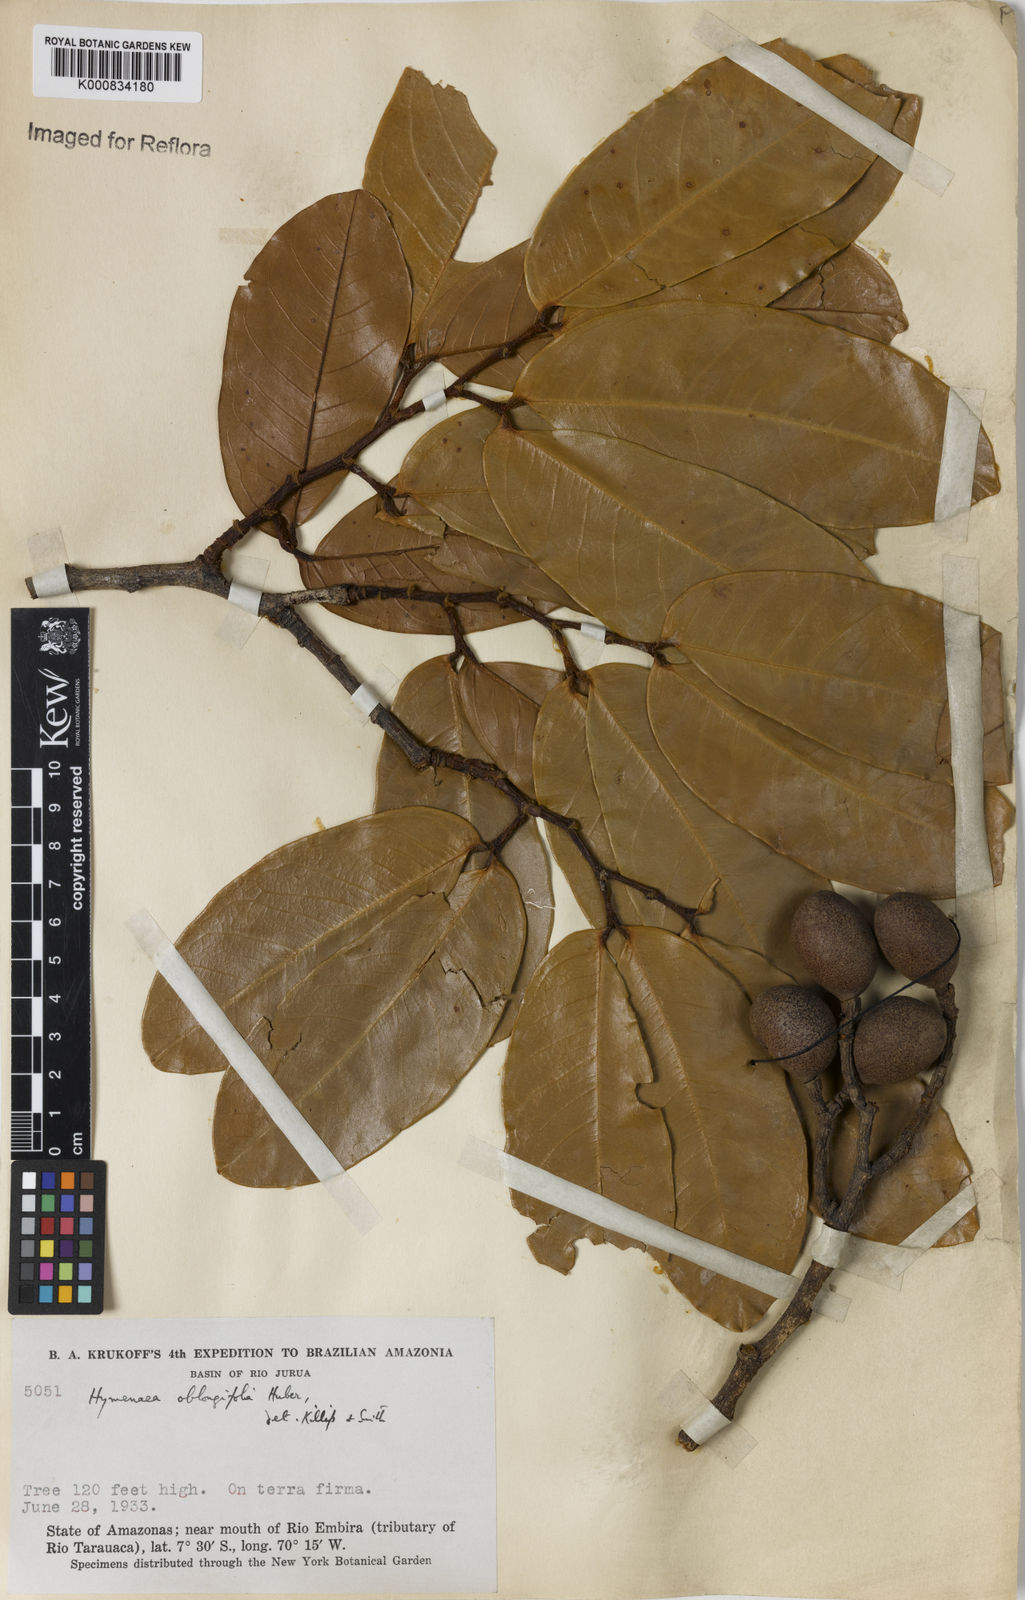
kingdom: Plantae
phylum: Tracheophyta
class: Magnoliopsida
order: Fabales
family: Fabaceae
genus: Hymenaea
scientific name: Hymenaea oblongifolia
